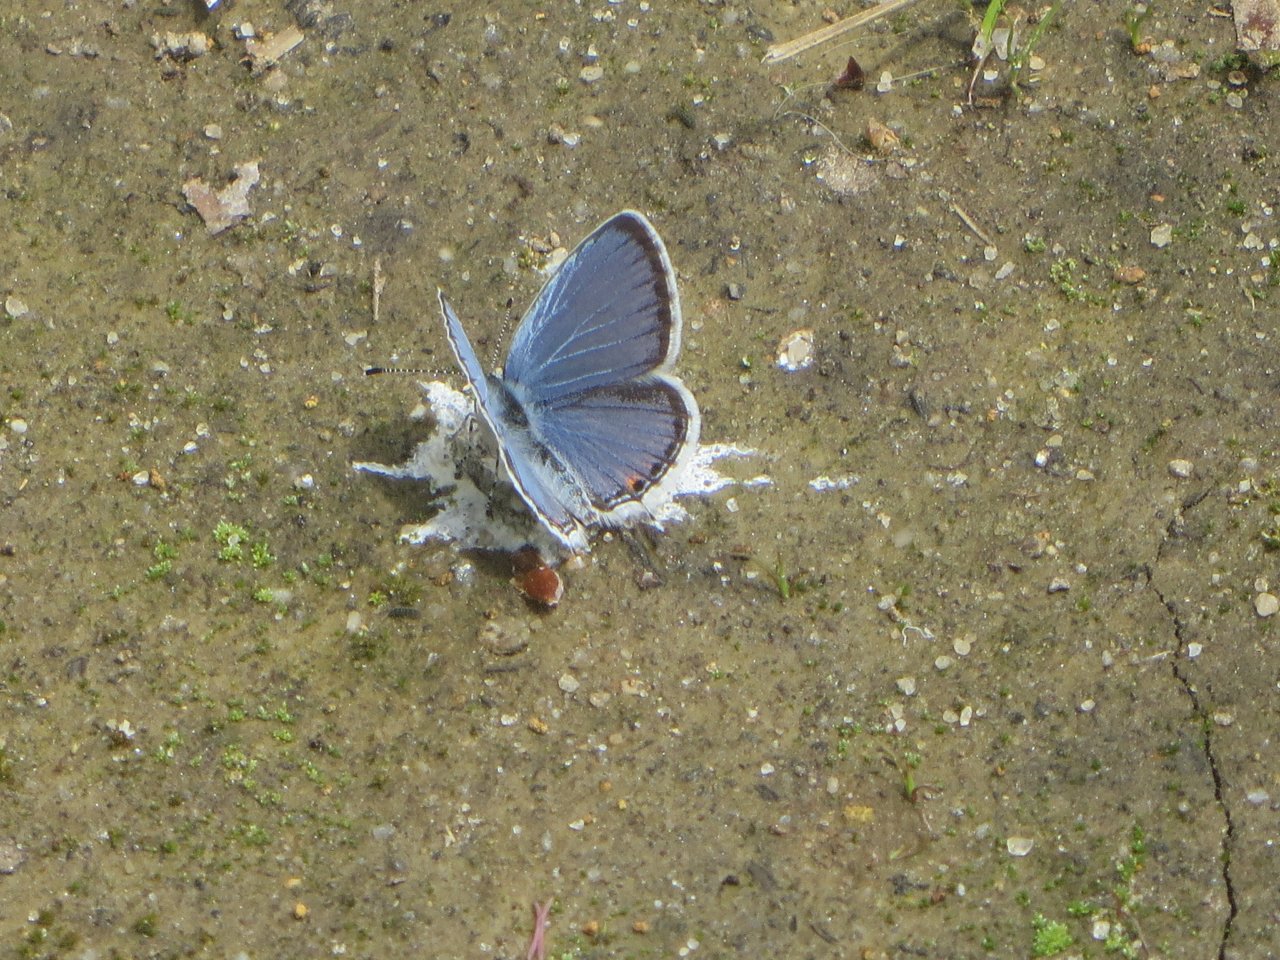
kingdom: Animalia
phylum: Arthropoda
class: Insecta
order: Lepidoptera
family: Lycaenidae
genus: Elkalyce
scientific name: Elkalyce comyntas
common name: Eastern Tailed-Blue
